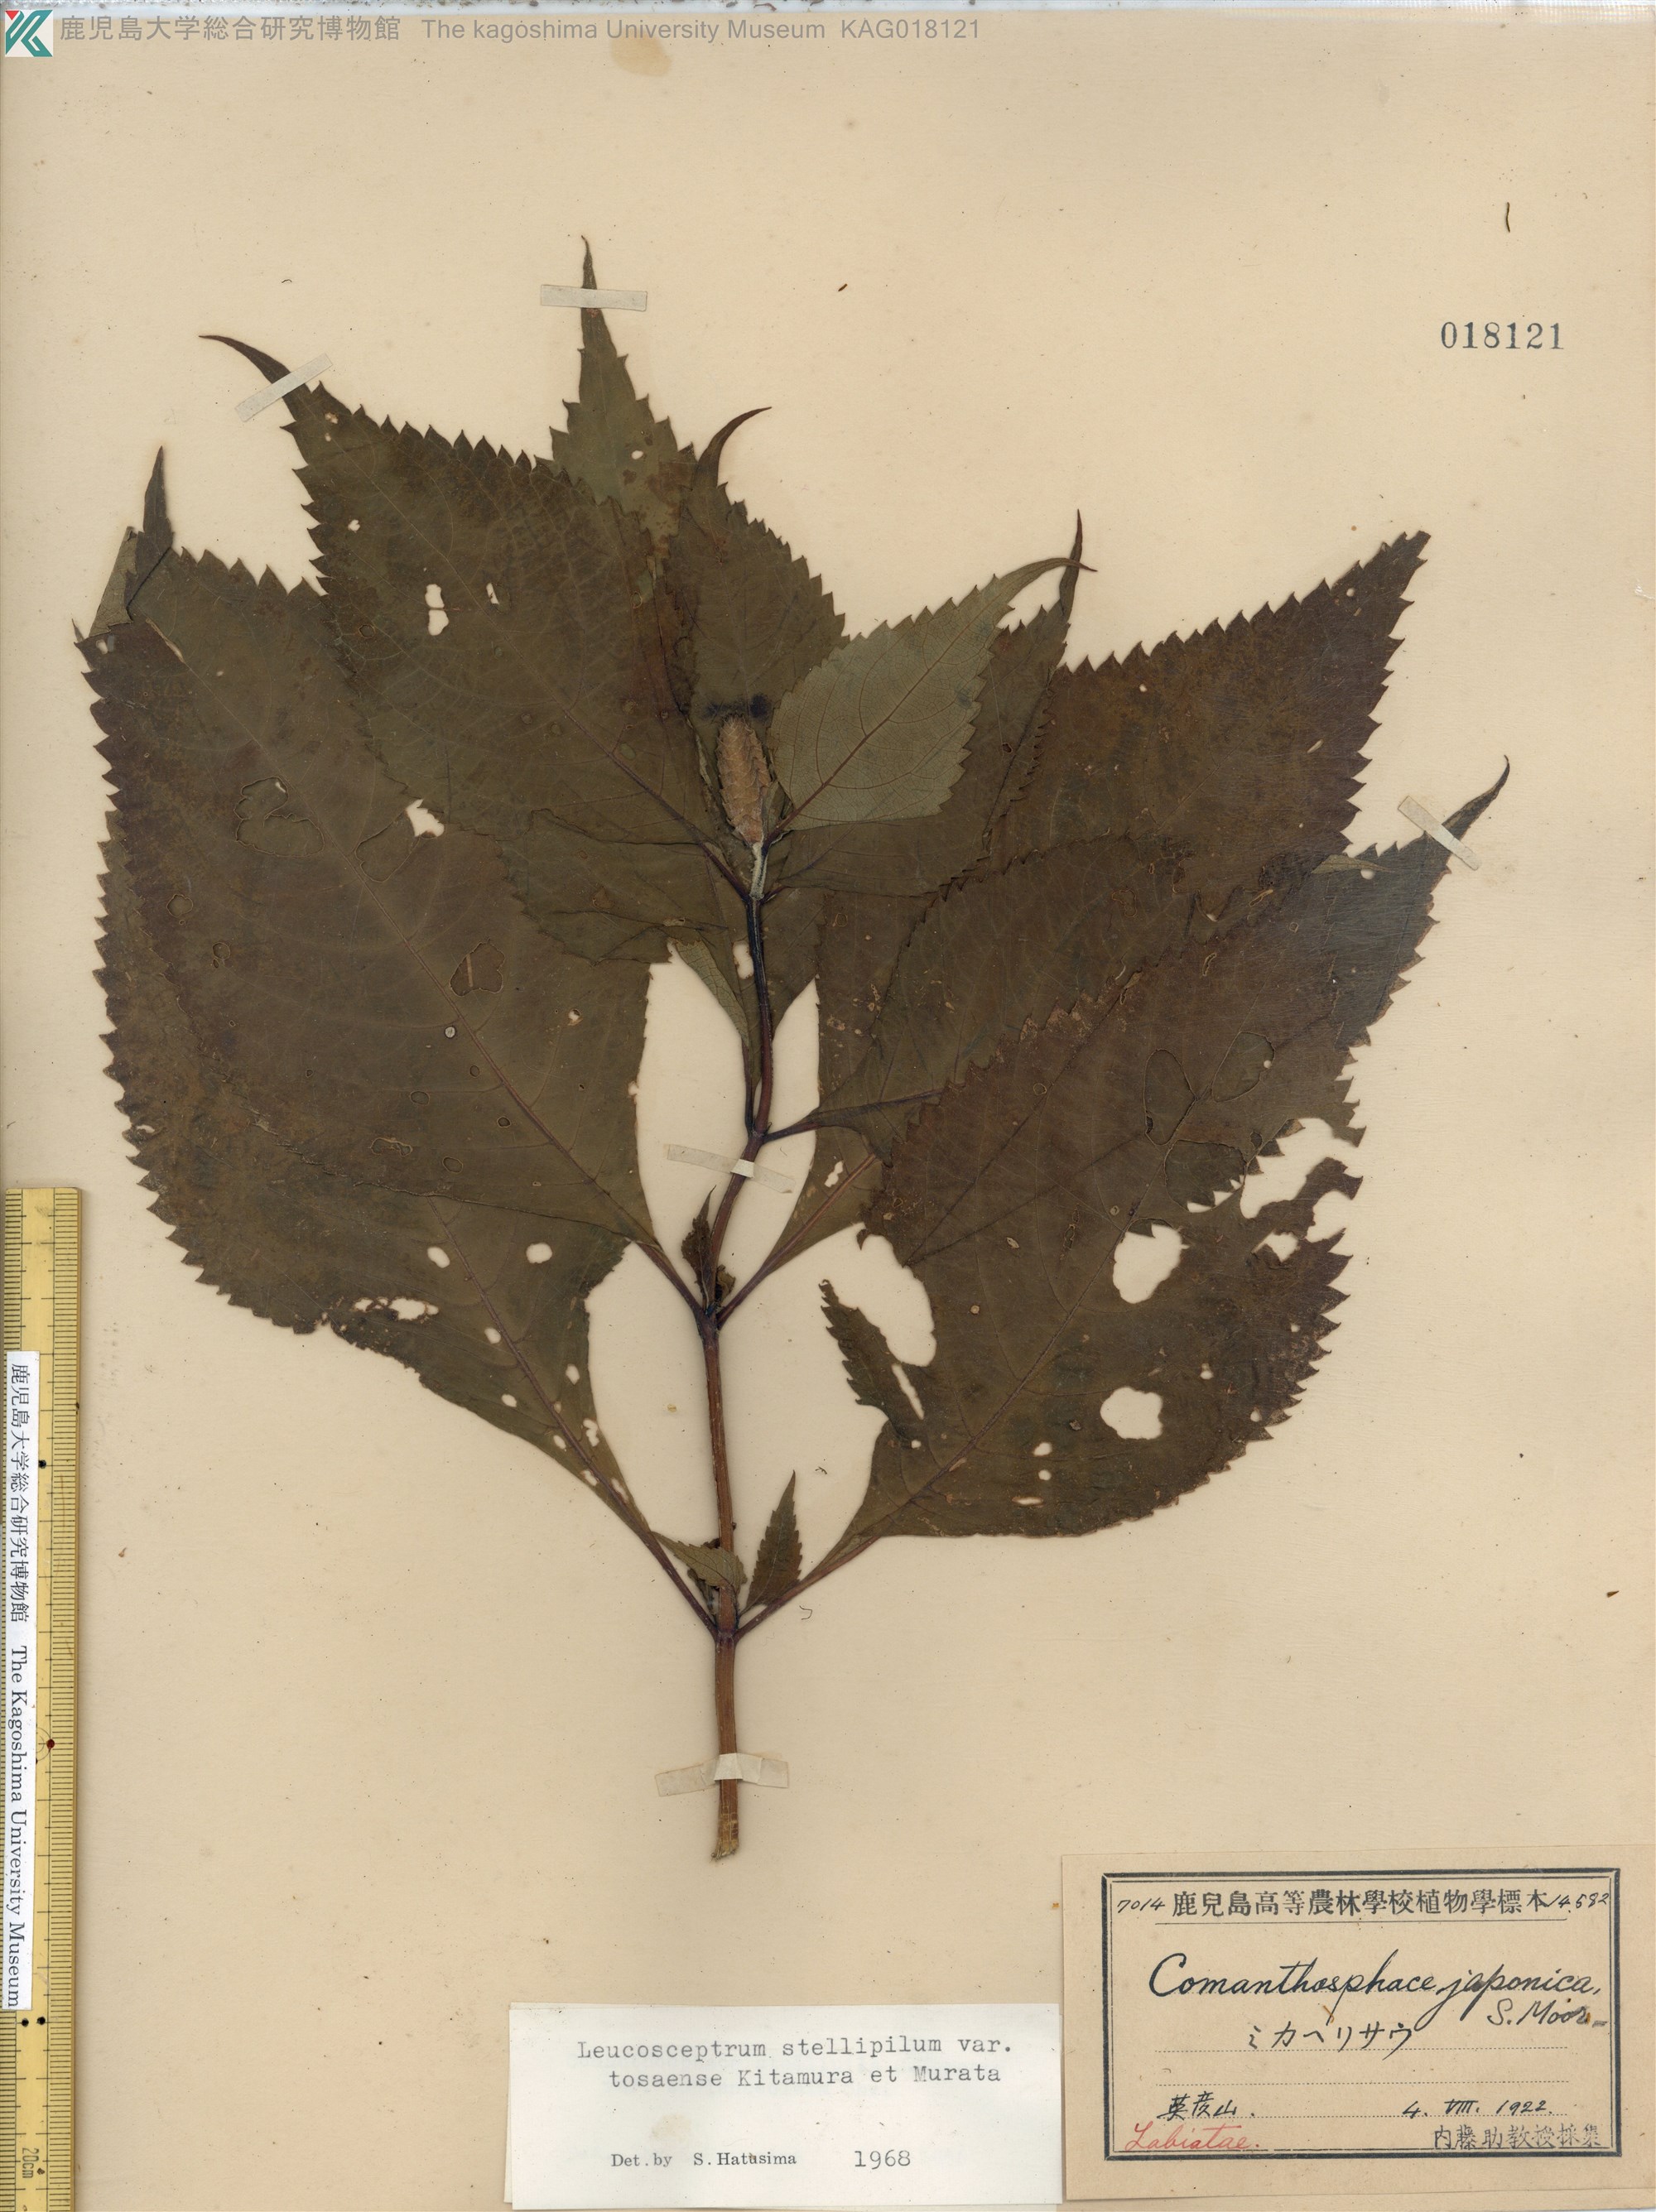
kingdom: Plantae
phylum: Tracheophyta
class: Magnoliopsida
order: Lamiales
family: Lamiaceae
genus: Comanthosphace
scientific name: Comanthosphace japonica
